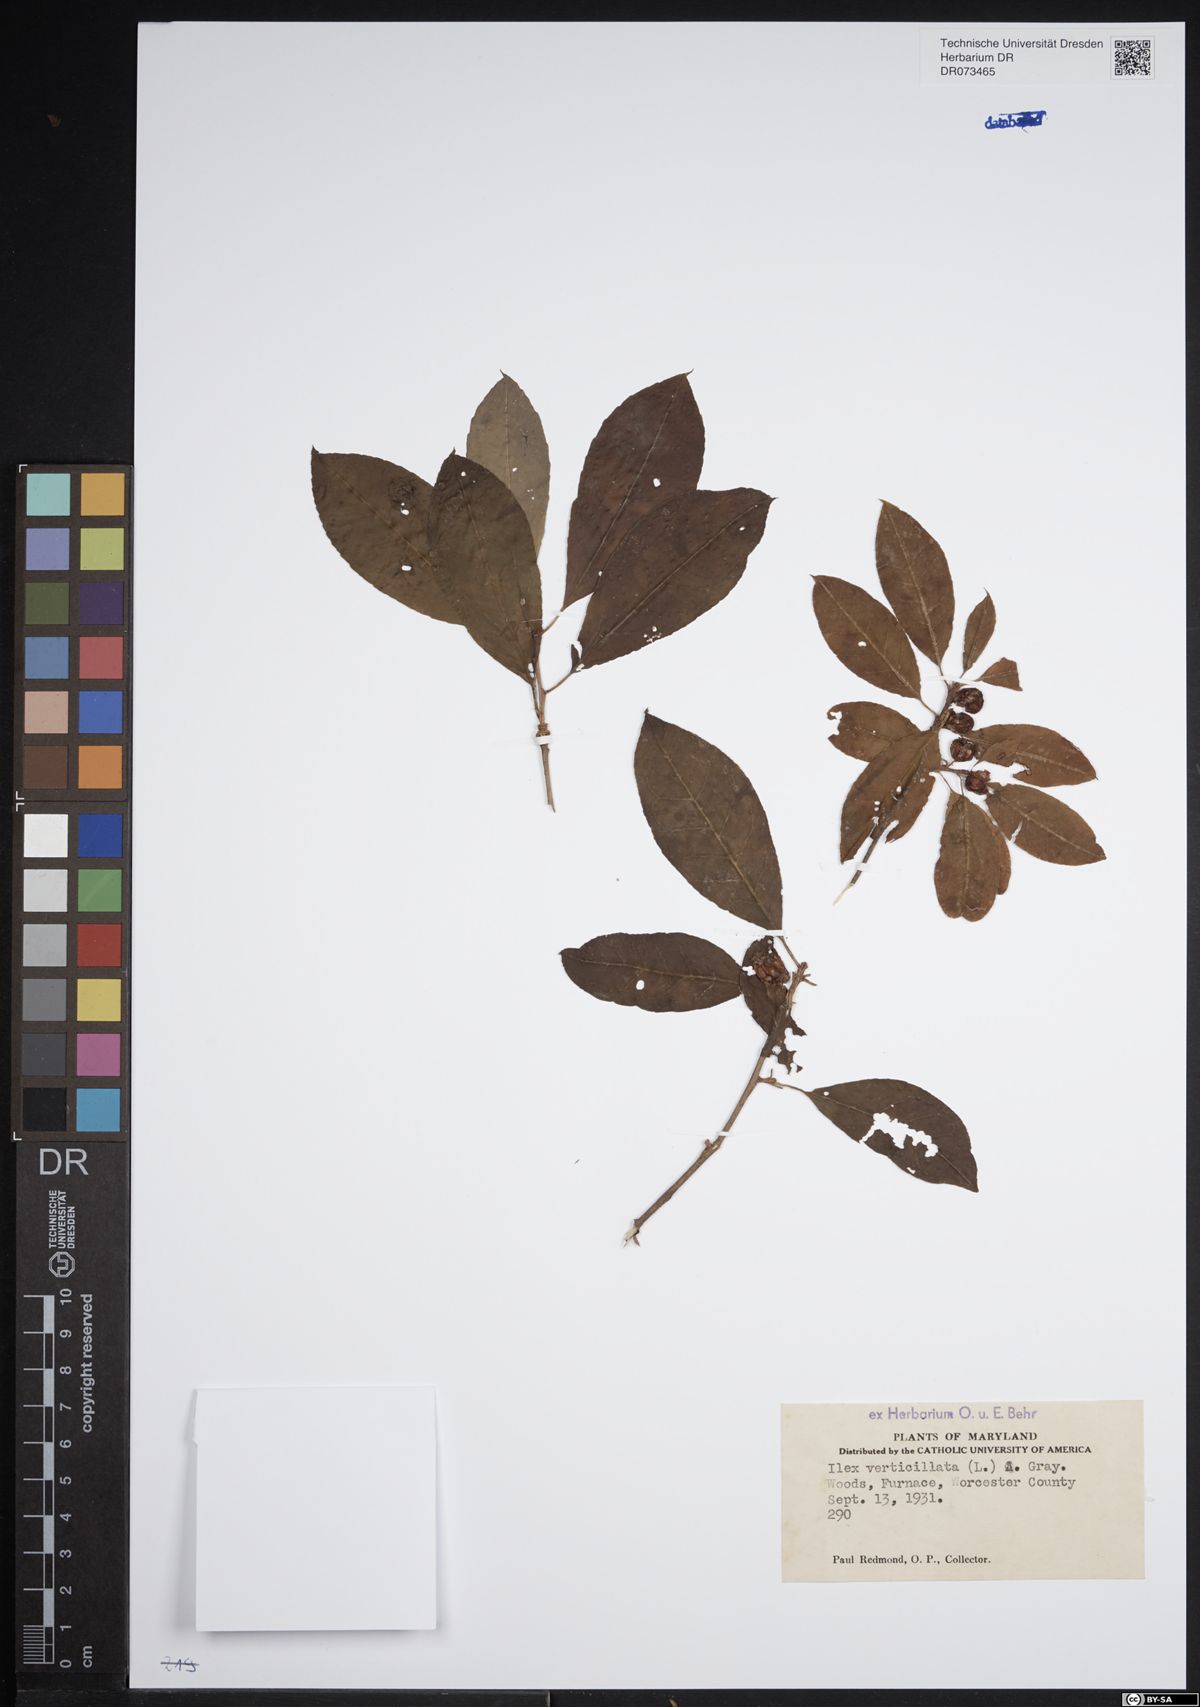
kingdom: Plantae
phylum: Tracheophyta
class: Magnoliopsida
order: Aquifoliales
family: Aquifoliaceae
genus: Ilex
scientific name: Ilex verticillata
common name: Virginia winterberry
